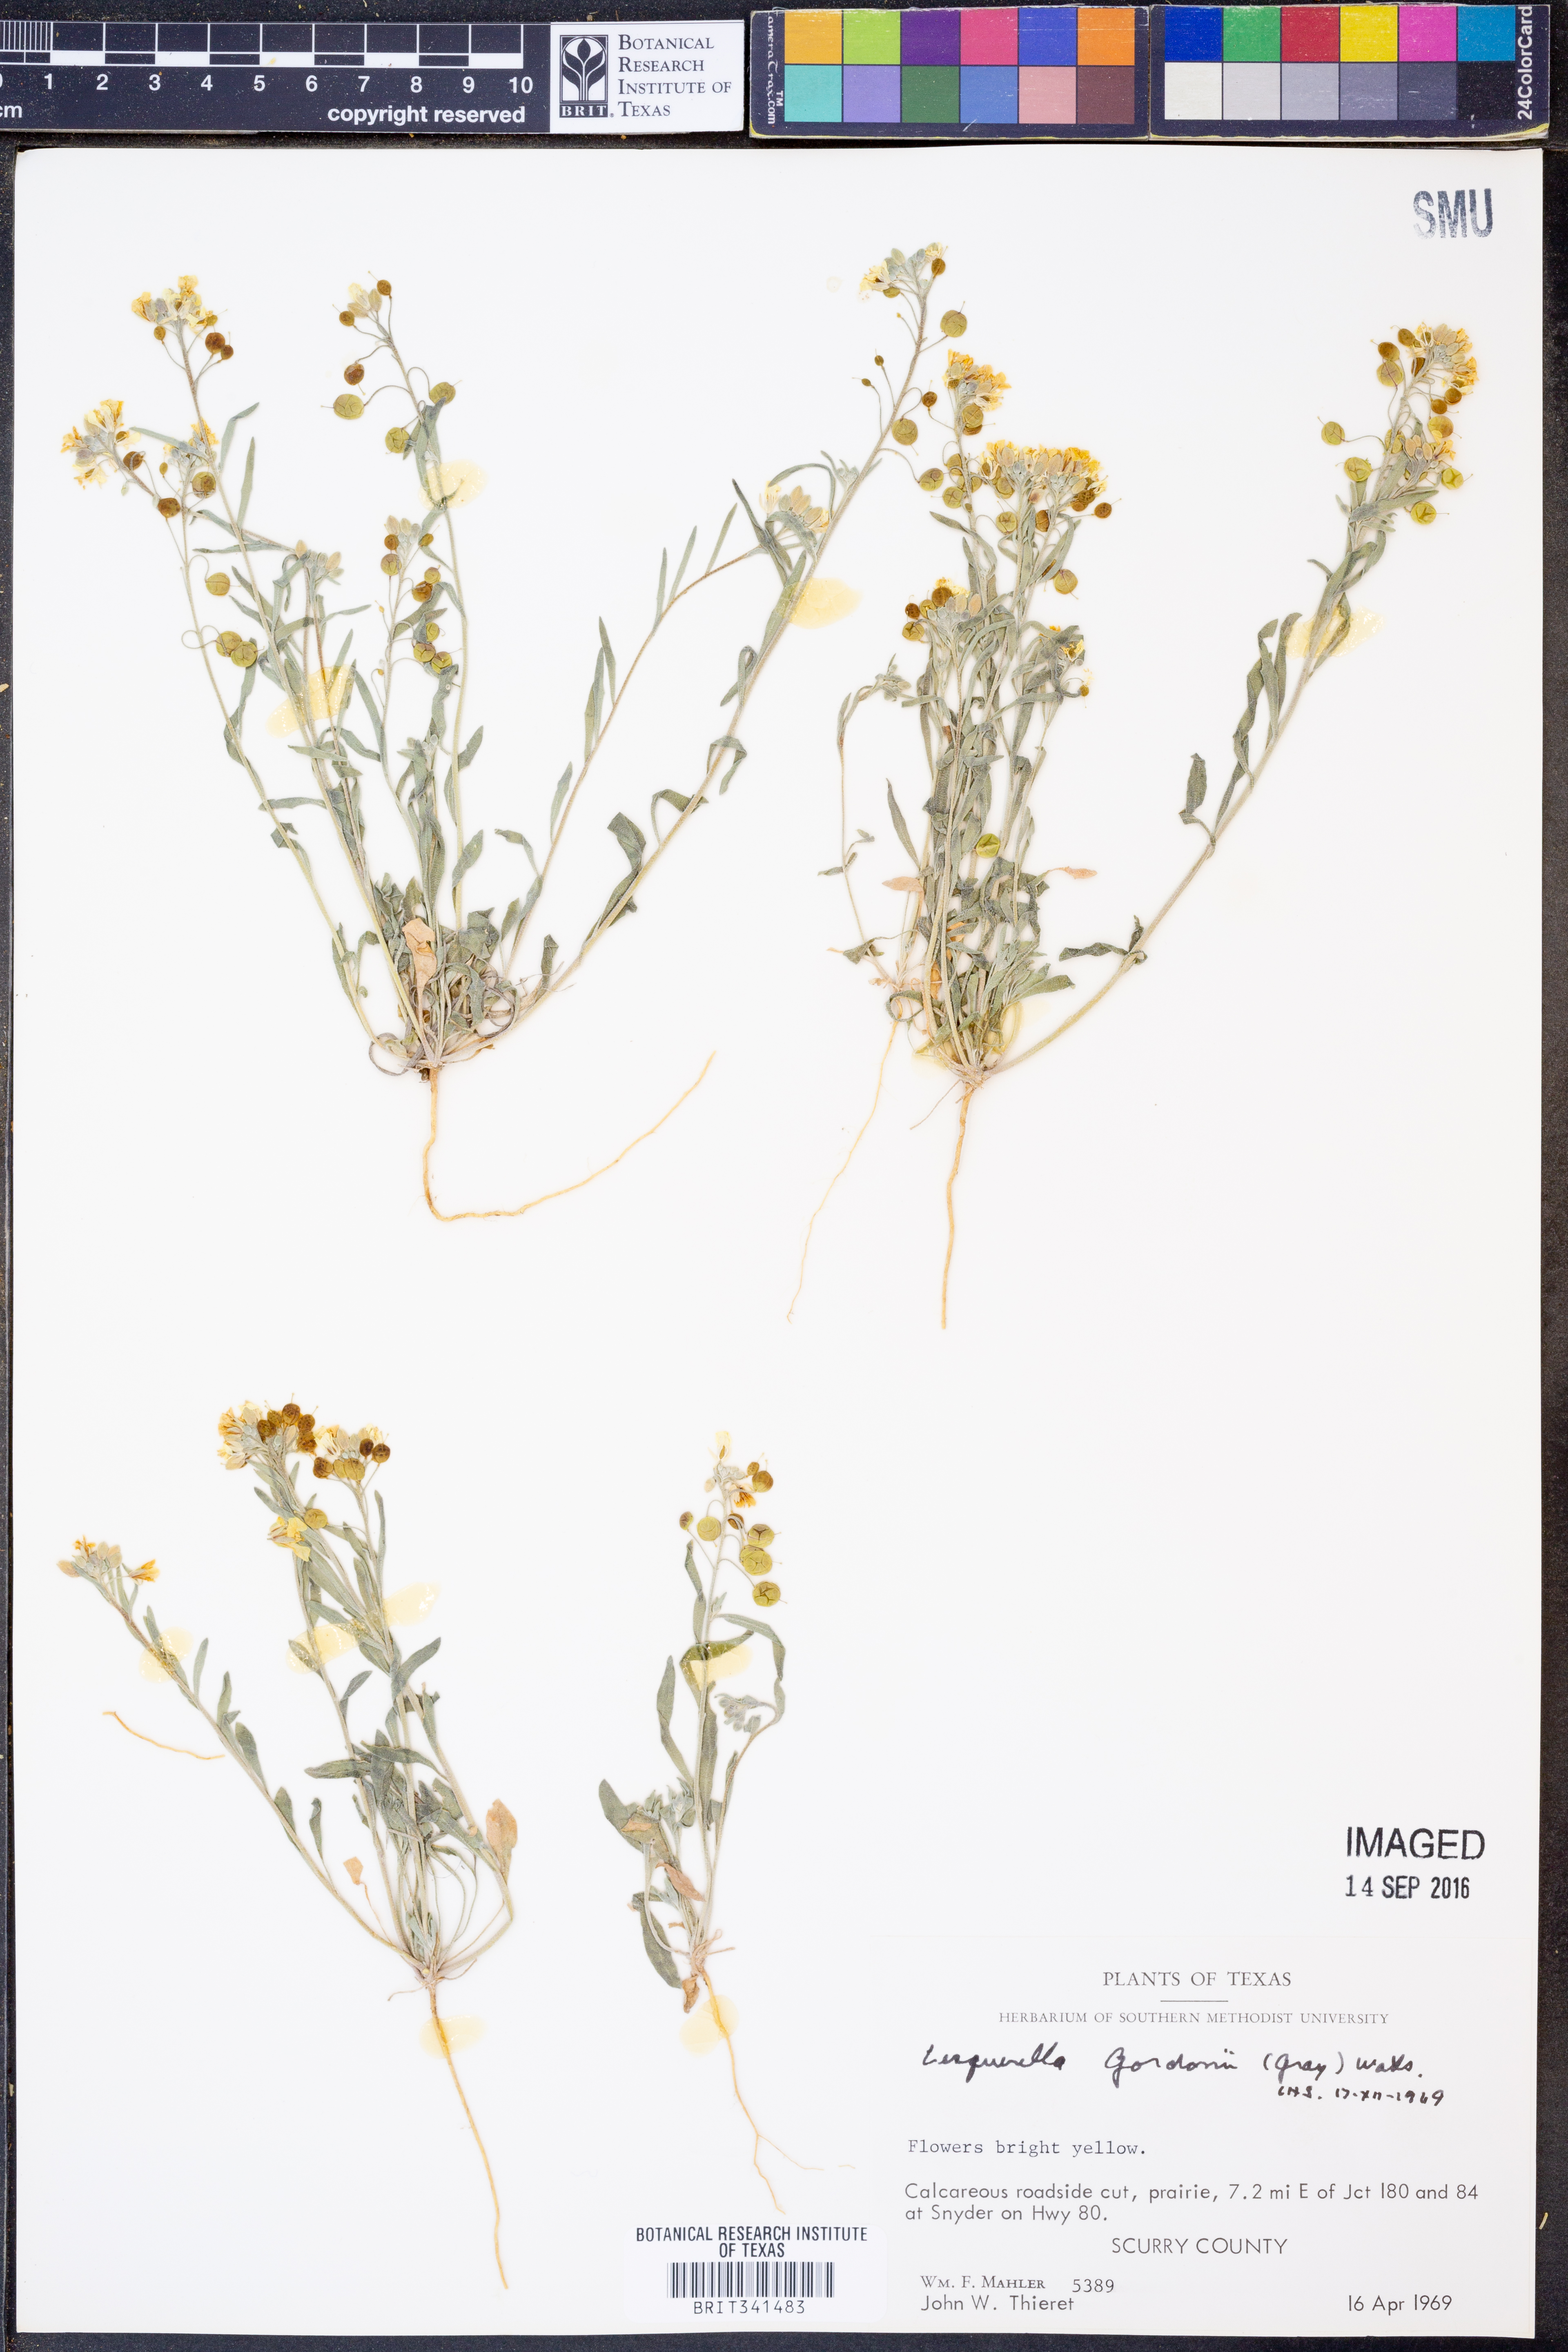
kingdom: Plantae
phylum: Tracheophyta
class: Magnoliopsida
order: Brassicales
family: Brassicaceae
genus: Physaria
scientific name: Physaria gordonii
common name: Gordon's bladderpod
